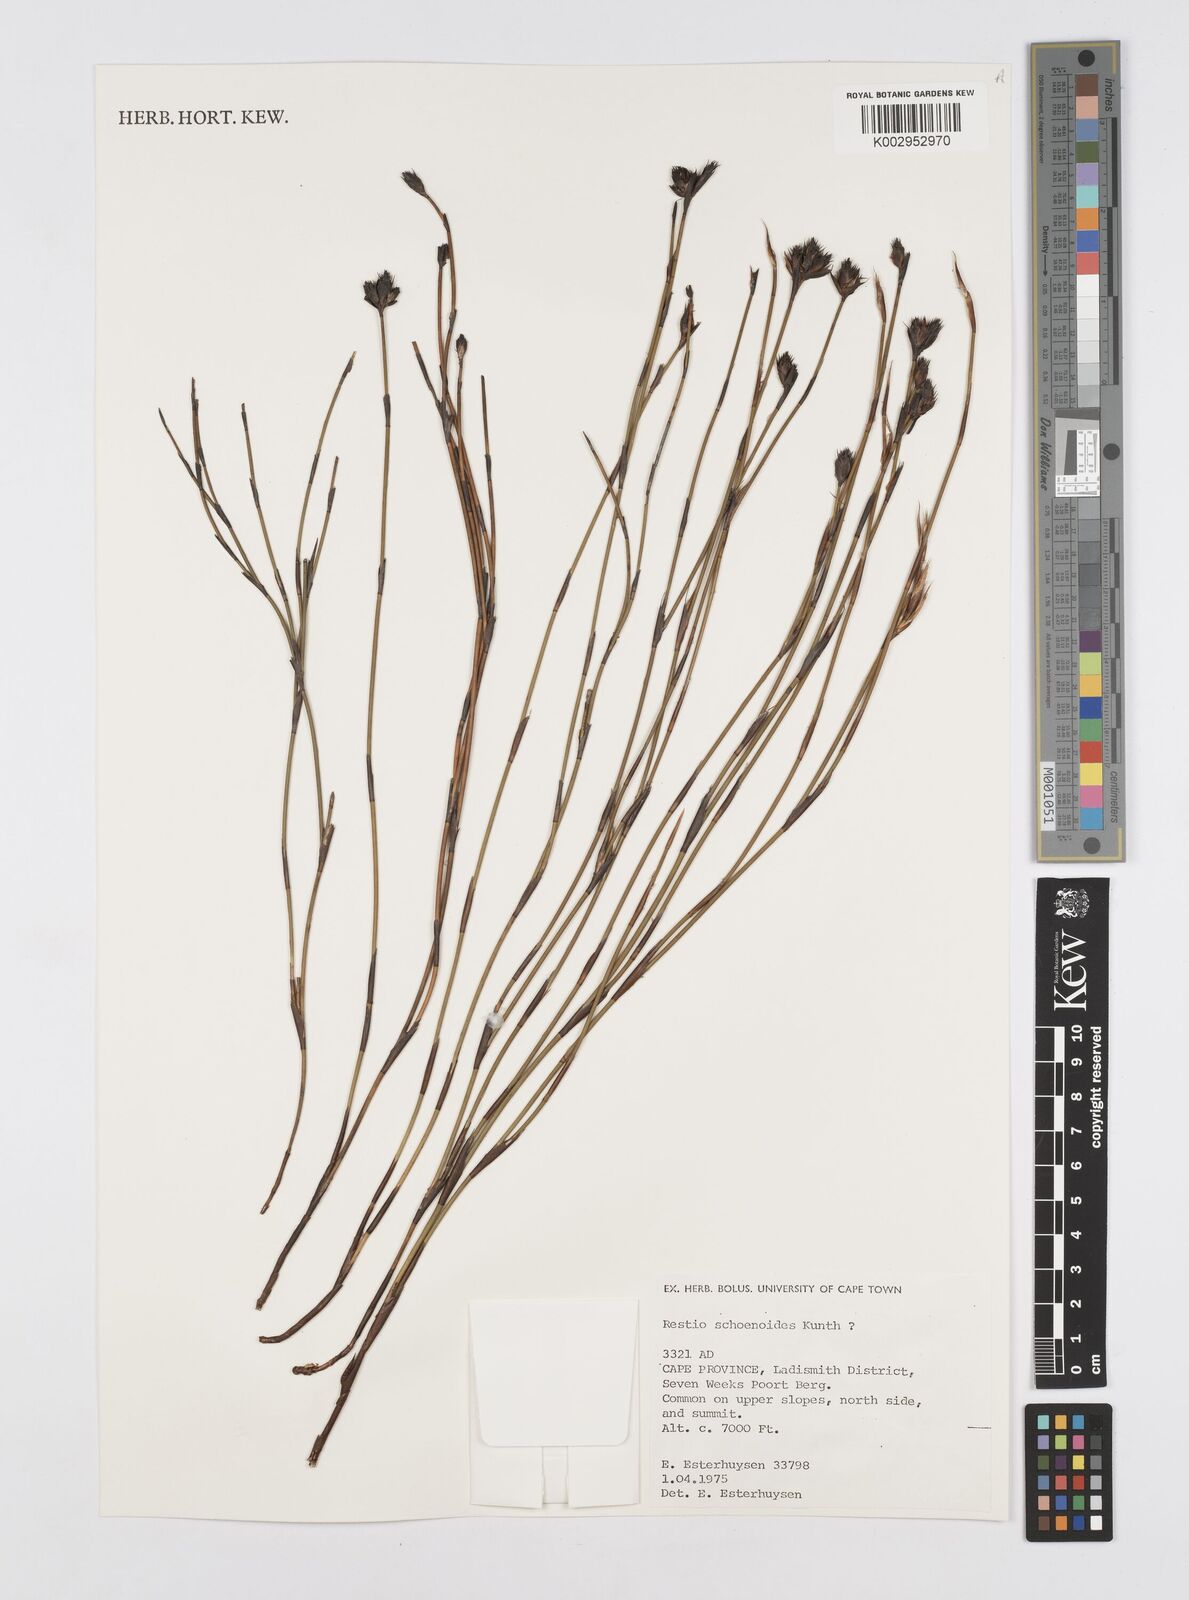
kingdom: Plantae
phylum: Tracheophyta
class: Liliopsida
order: Poales
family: Restionaceae
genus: Restio
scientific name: Restio schoenoides
